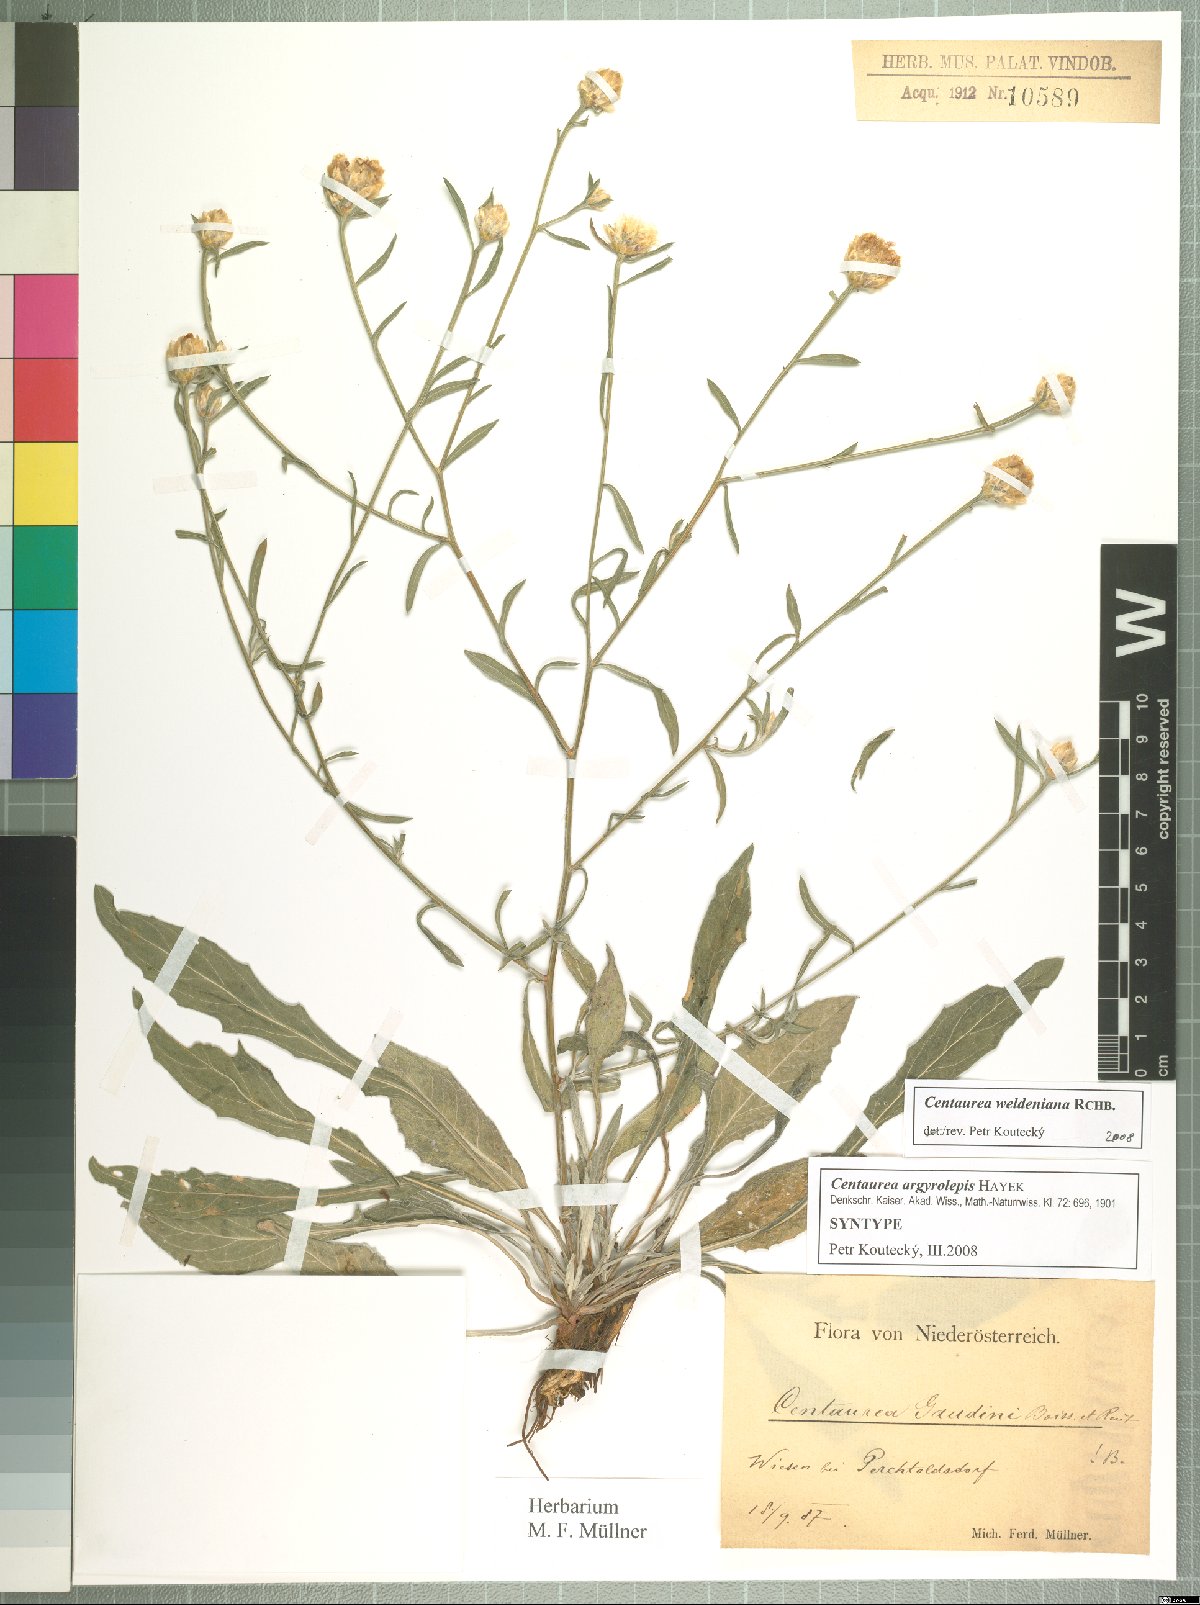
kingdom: Plantae
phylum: Tracheophyta
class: Magnoliopsida
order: Asterales
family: Asteraceae
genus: Centaurea
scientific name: Centaurea jacea
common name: Brown knapweed
